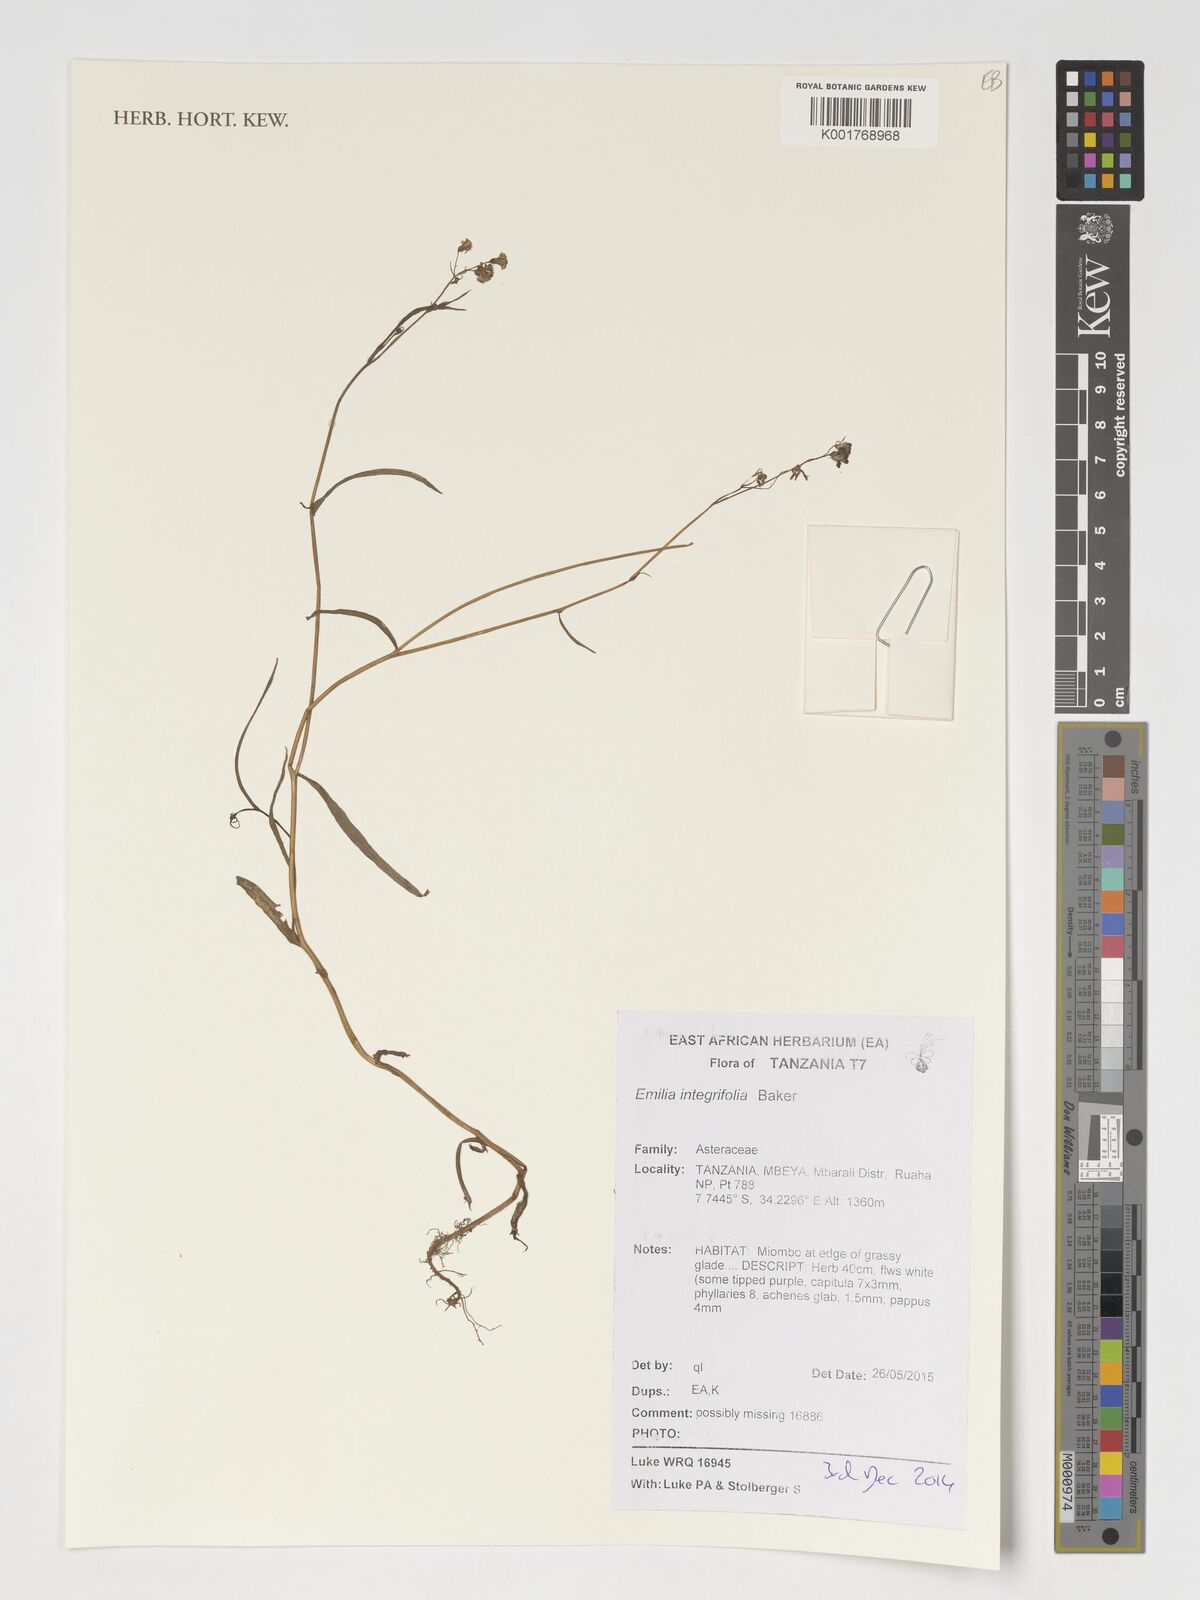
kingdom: Plantae
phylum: Tracheophyta
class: Magnoliopsida
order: Asterales
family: Asteraceae
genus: Emilia
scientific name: Emilia integrifolia
